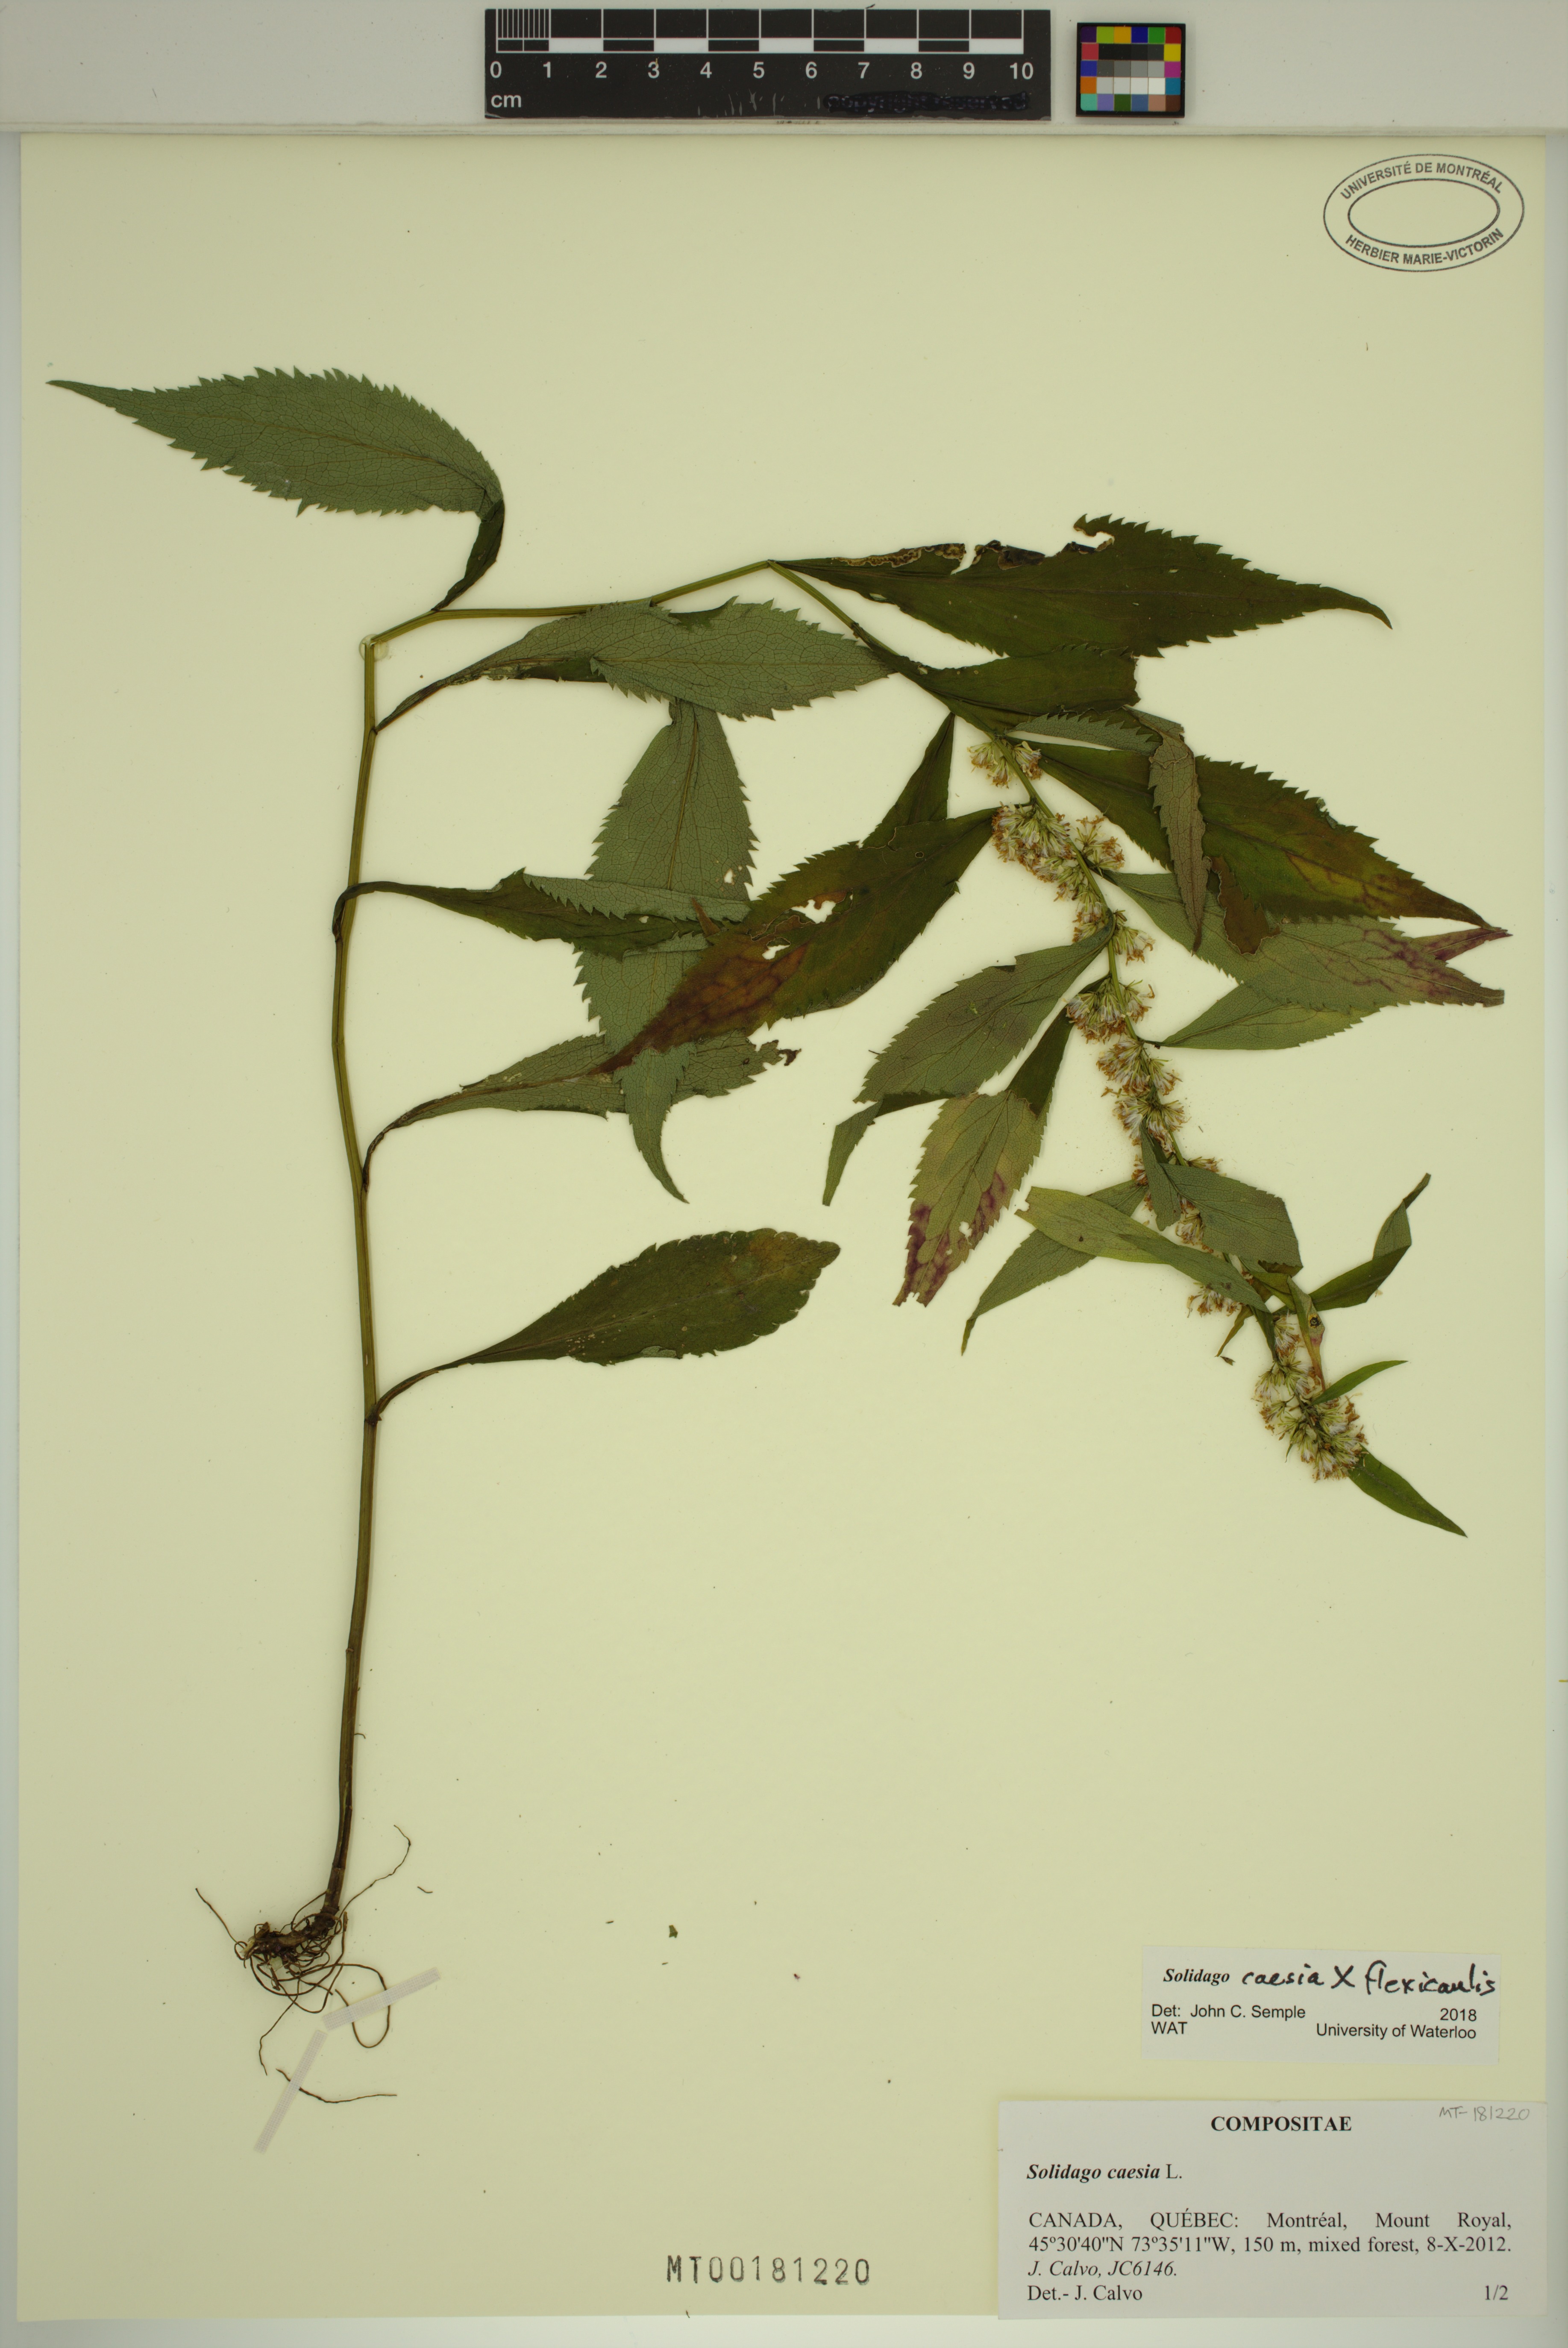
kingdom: Plantae
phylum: Tracheophyta
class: Magnoliopsida
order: Asterales
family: Asteraceae
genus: Solidago
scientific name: Solidago caesia
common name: Woodland goldenrod
